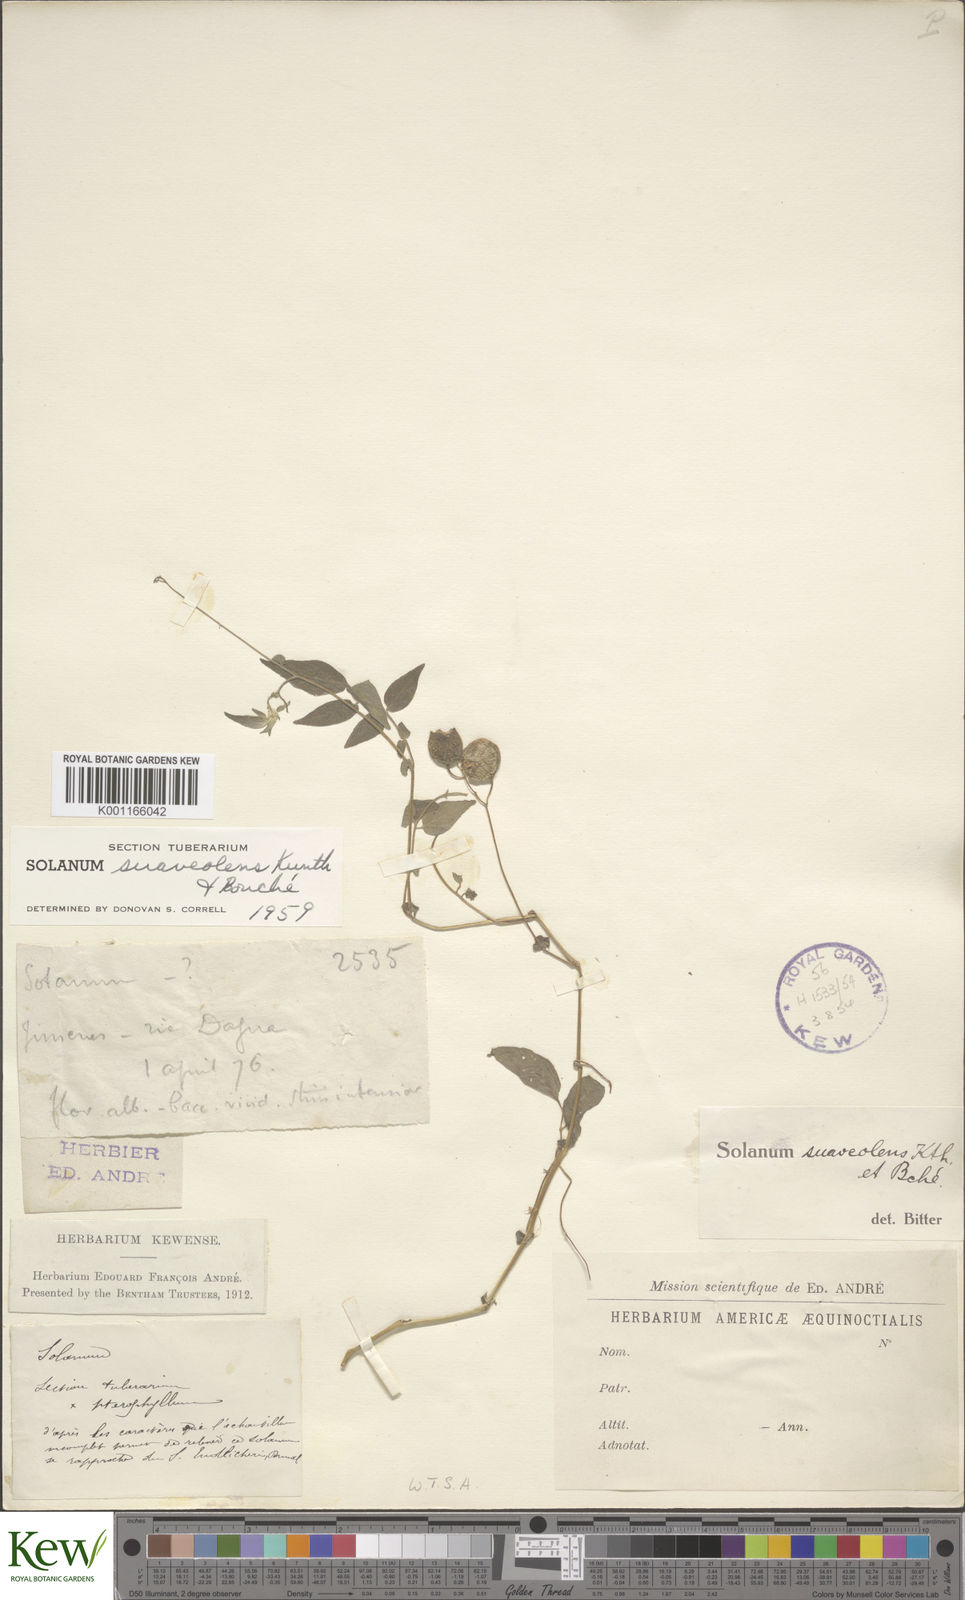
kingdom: Plantae
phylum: Tracheophyta
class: Magnoliopsida
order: Solanales
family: Solanaceae
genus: Solanum
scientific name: Solanum suaveolens
